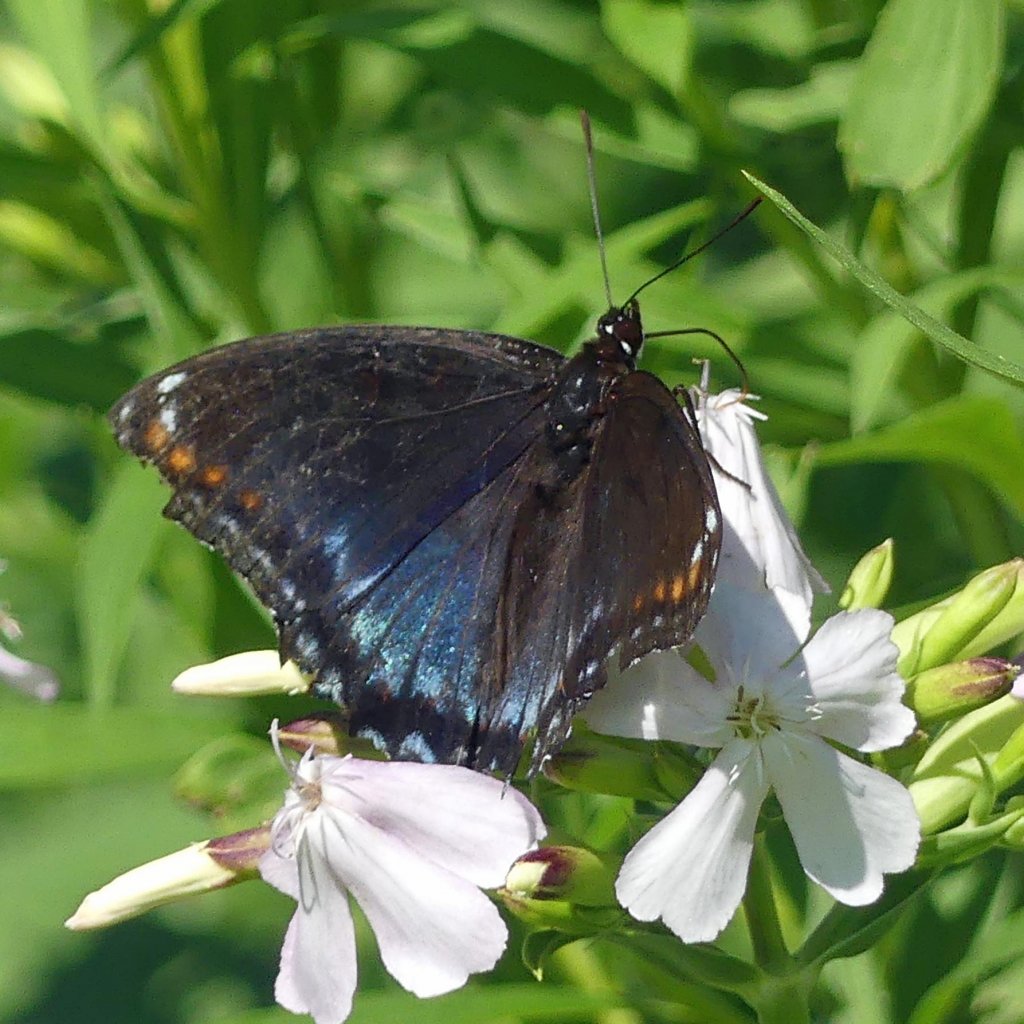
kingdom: Animalia
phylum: Arthropoda
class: Insecta
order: Lepidoptera
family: Nymphalidae
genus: Limenitis
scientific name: Limenitis astyanax
